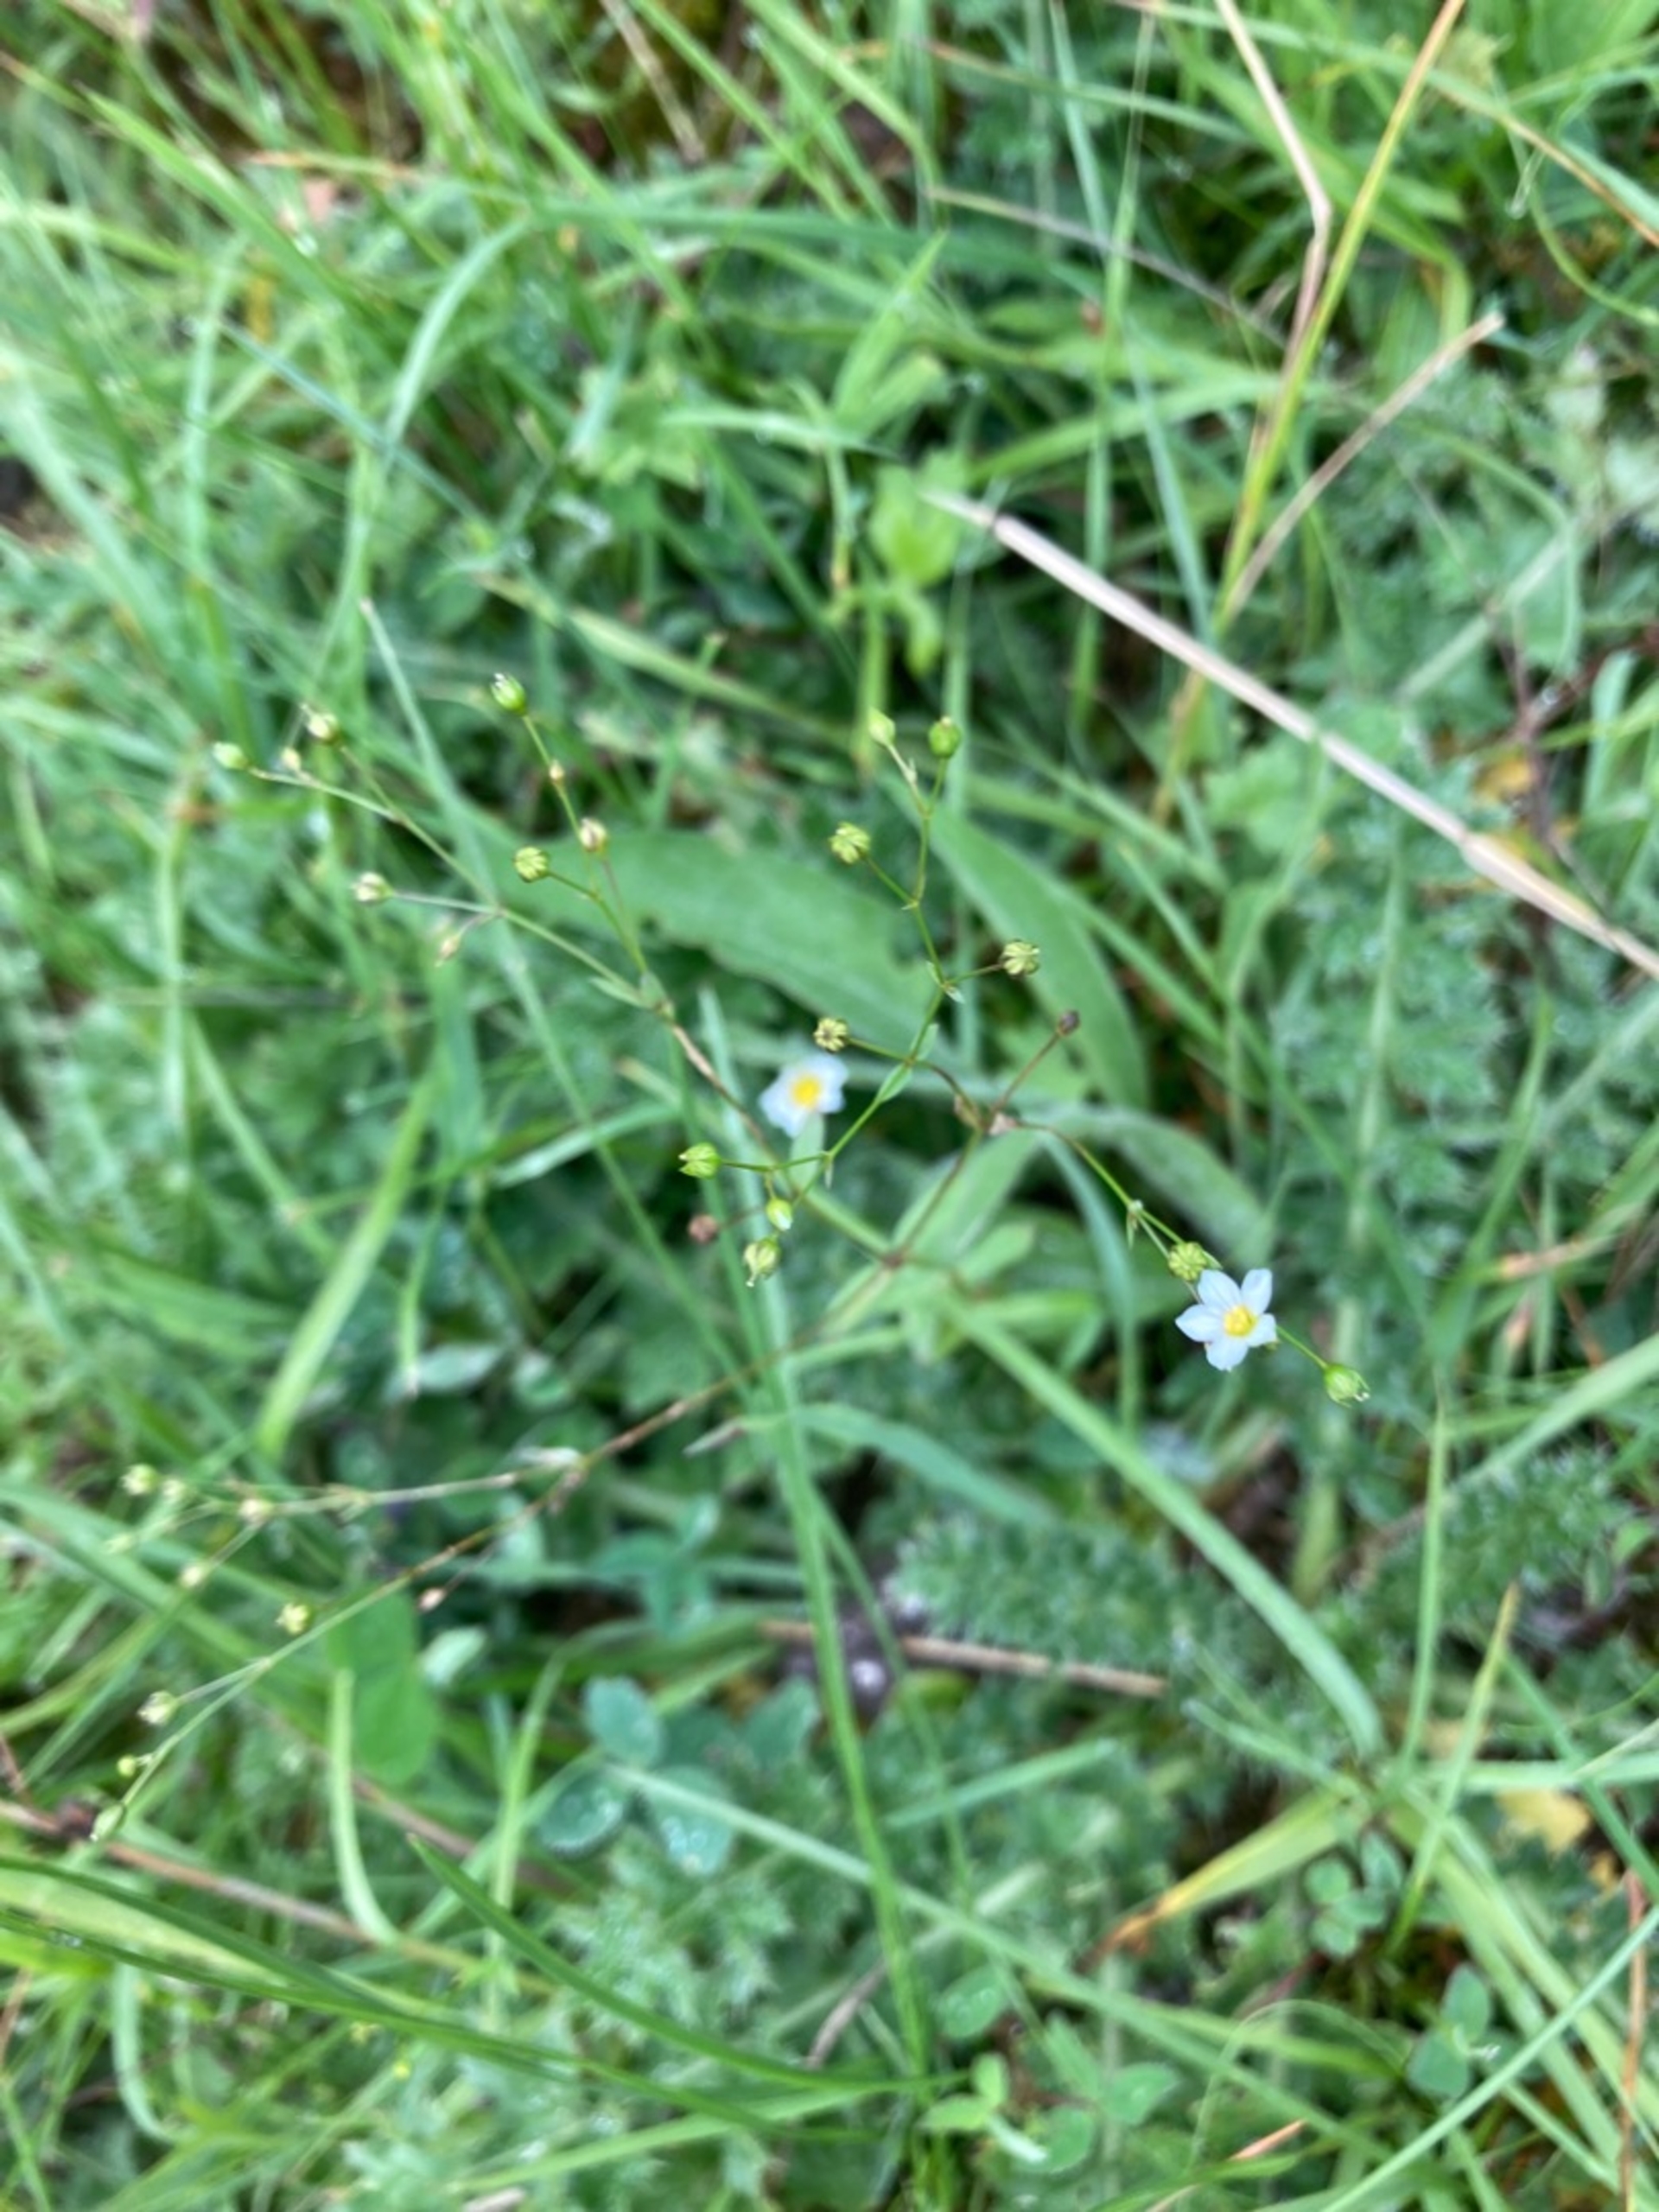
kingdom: Plantae
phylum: Tracheophyta
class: Magnoliopsida
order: Malpighiales
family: Linaceae
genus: Linum
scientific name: Linum catharticum
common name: Vild hør
